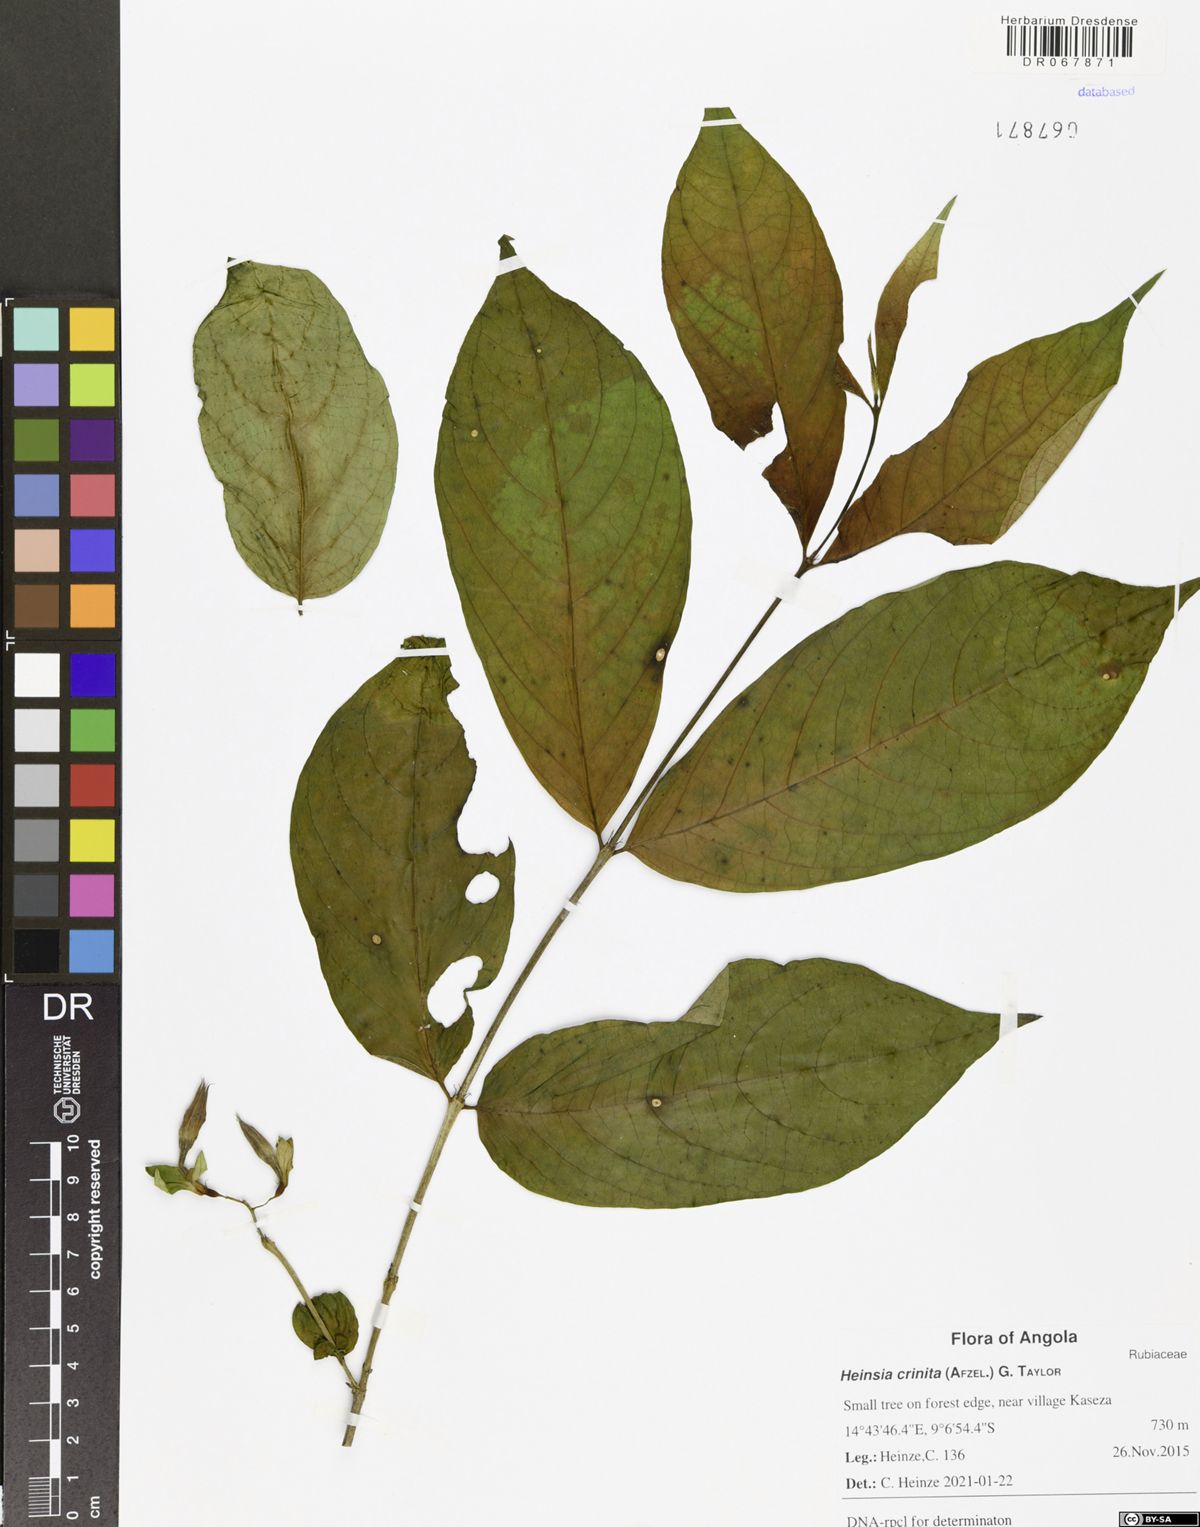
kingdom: Plantae
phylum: Tracheophyta
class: Magnoliopsida
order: Gentianales
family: Rubiaceae
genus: Heinsia
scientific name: Heinsia crinita
